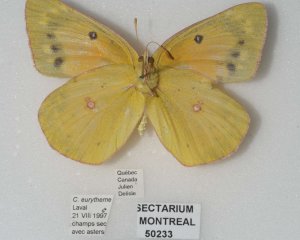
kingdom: Animalia
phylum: Arthropoda
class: Insecta
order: Lepidoptera
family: Pieridae
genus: Colias
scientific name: Colias eurytheme
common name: Orange Sulphur
